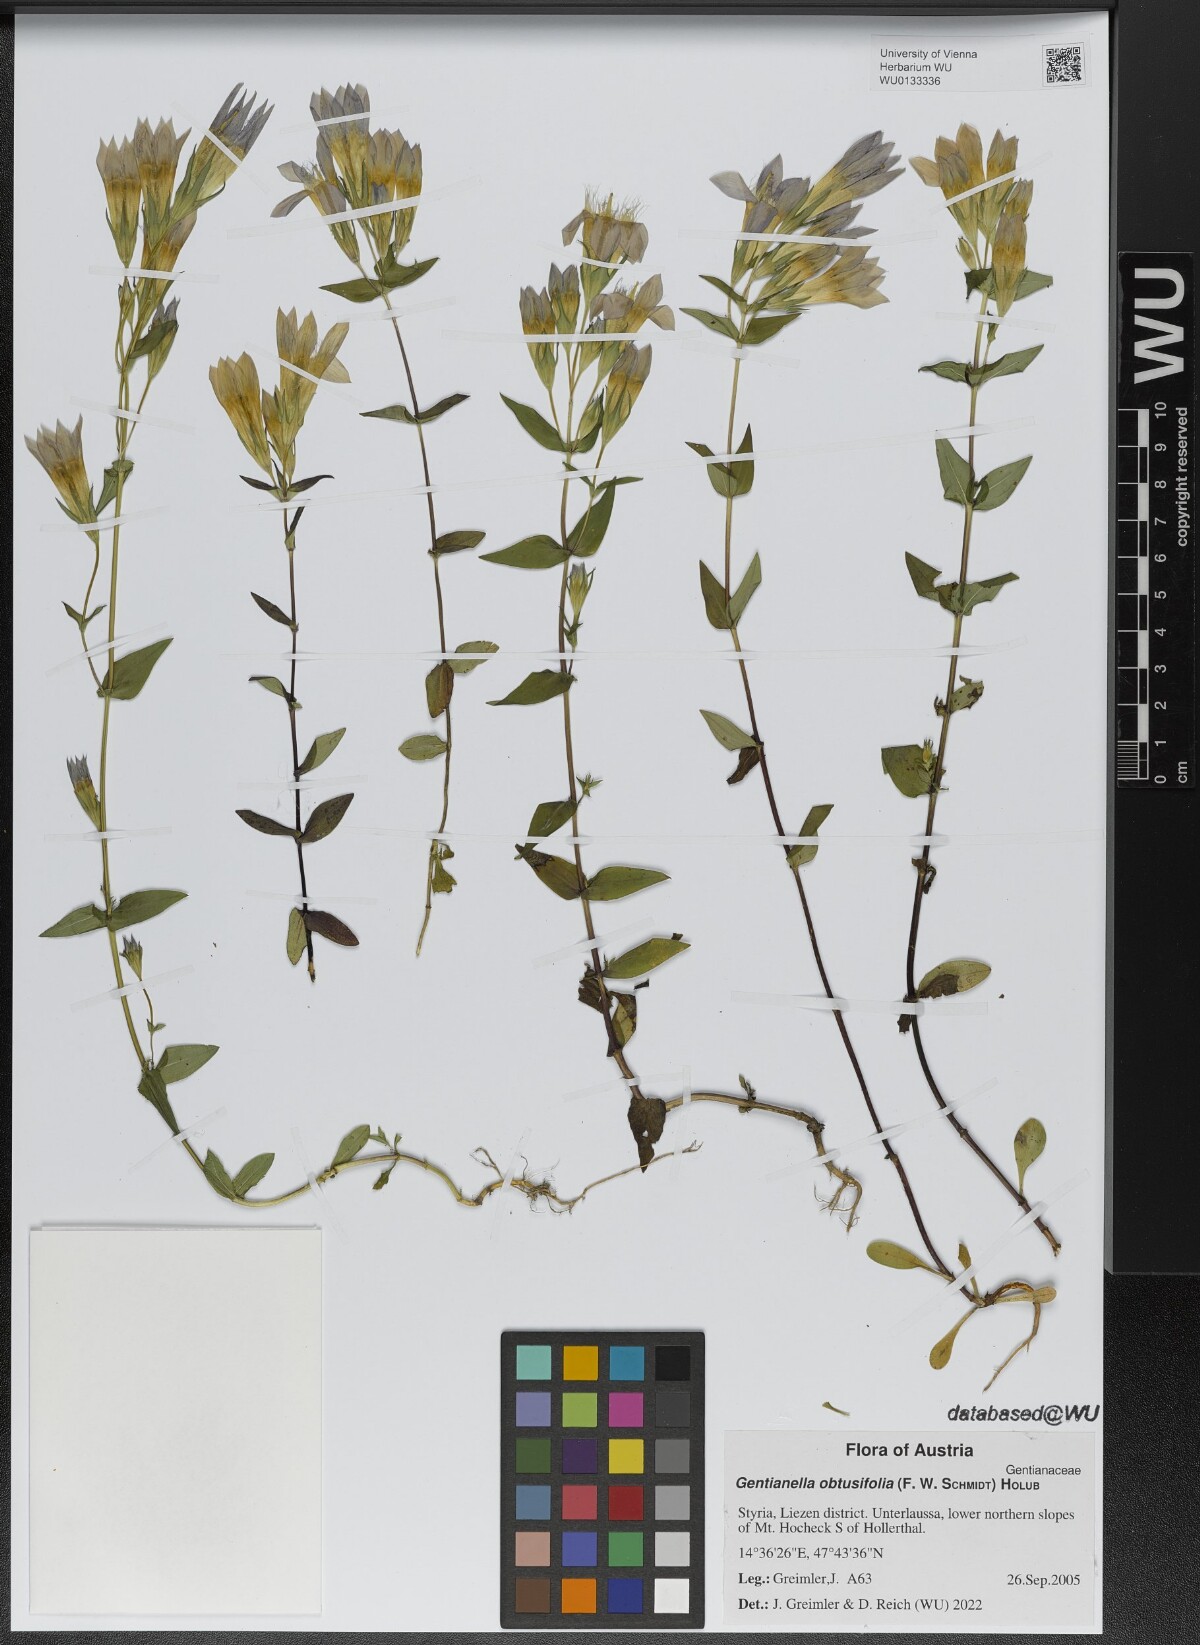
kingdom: Plantae
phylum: Tracheophyta
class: Magnoliopsida
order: Gentianales
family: Gentianaceae
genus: Gentianella
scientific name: Gentianella obtusifolia
